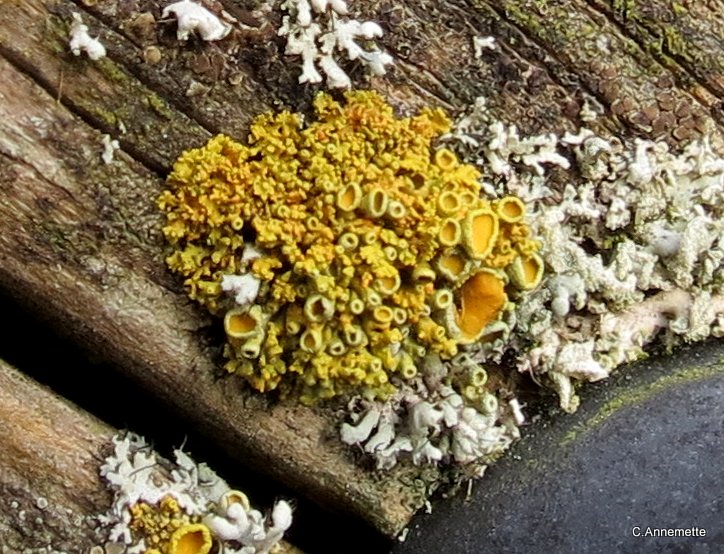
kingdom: Fungi
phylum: Ascomycota
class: Lecanoromycetes
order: Teloschistales
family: Teloschistaceae
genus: Polycauliona
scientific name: Polycauliona polycarpa
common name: mangefrugtet orangelav
